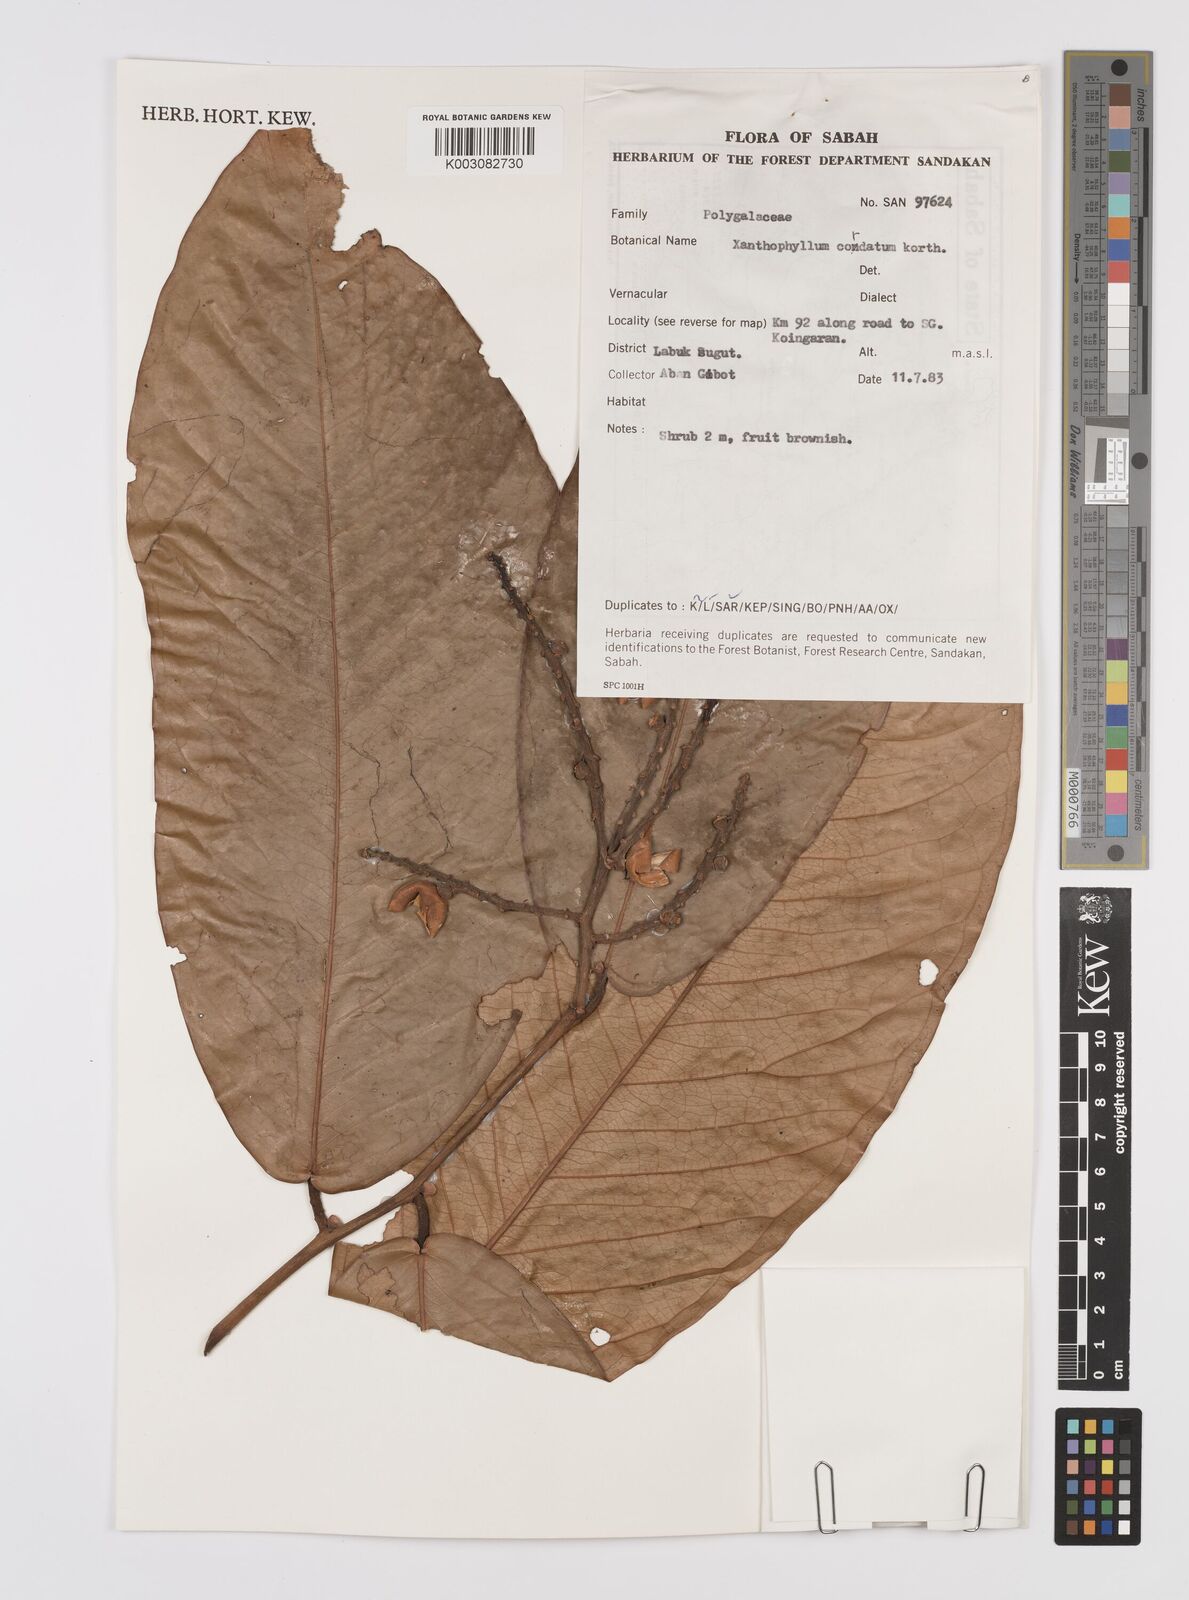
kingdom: Plantae
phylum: Tracheophyta
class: Magnoliopsida
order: Fabales
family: Polygalaceae
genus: Xanthophyllum
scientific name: Xanthophyllum adenotus
